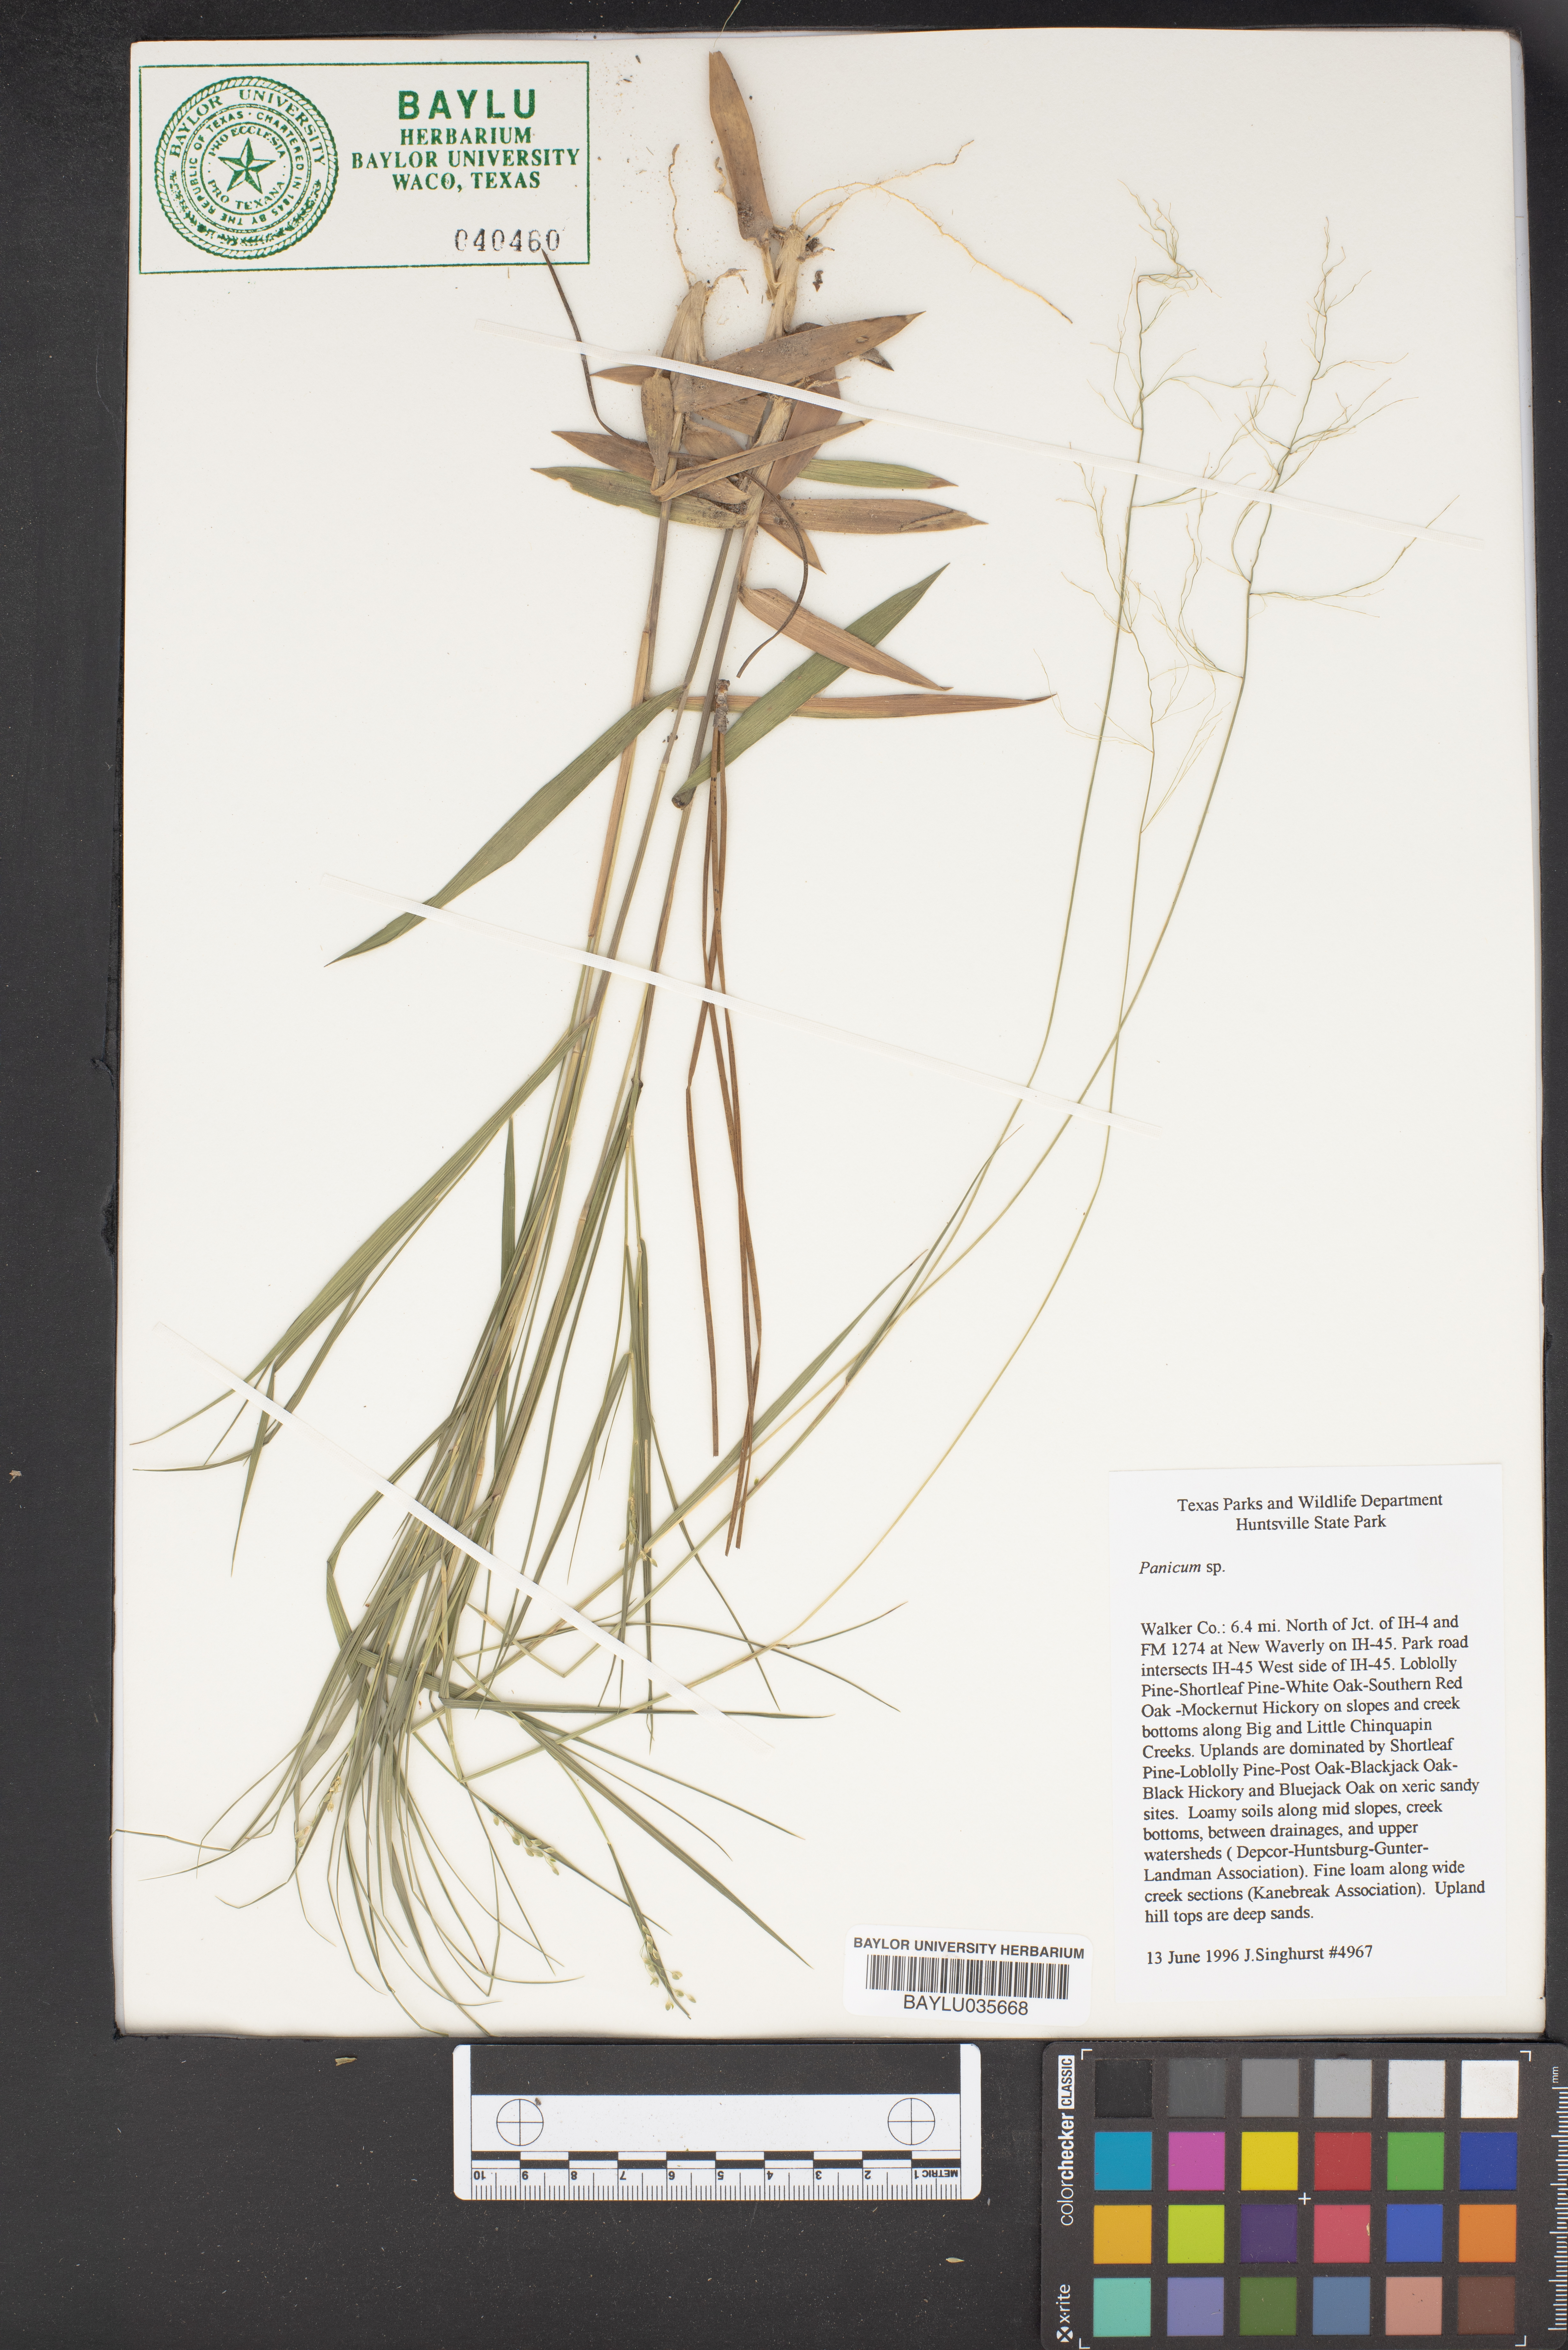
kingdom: Plantae
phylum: Tracheophyta
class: Liliopsida
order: Poales
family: Poaceae
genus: Panicum
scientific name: Panicum
